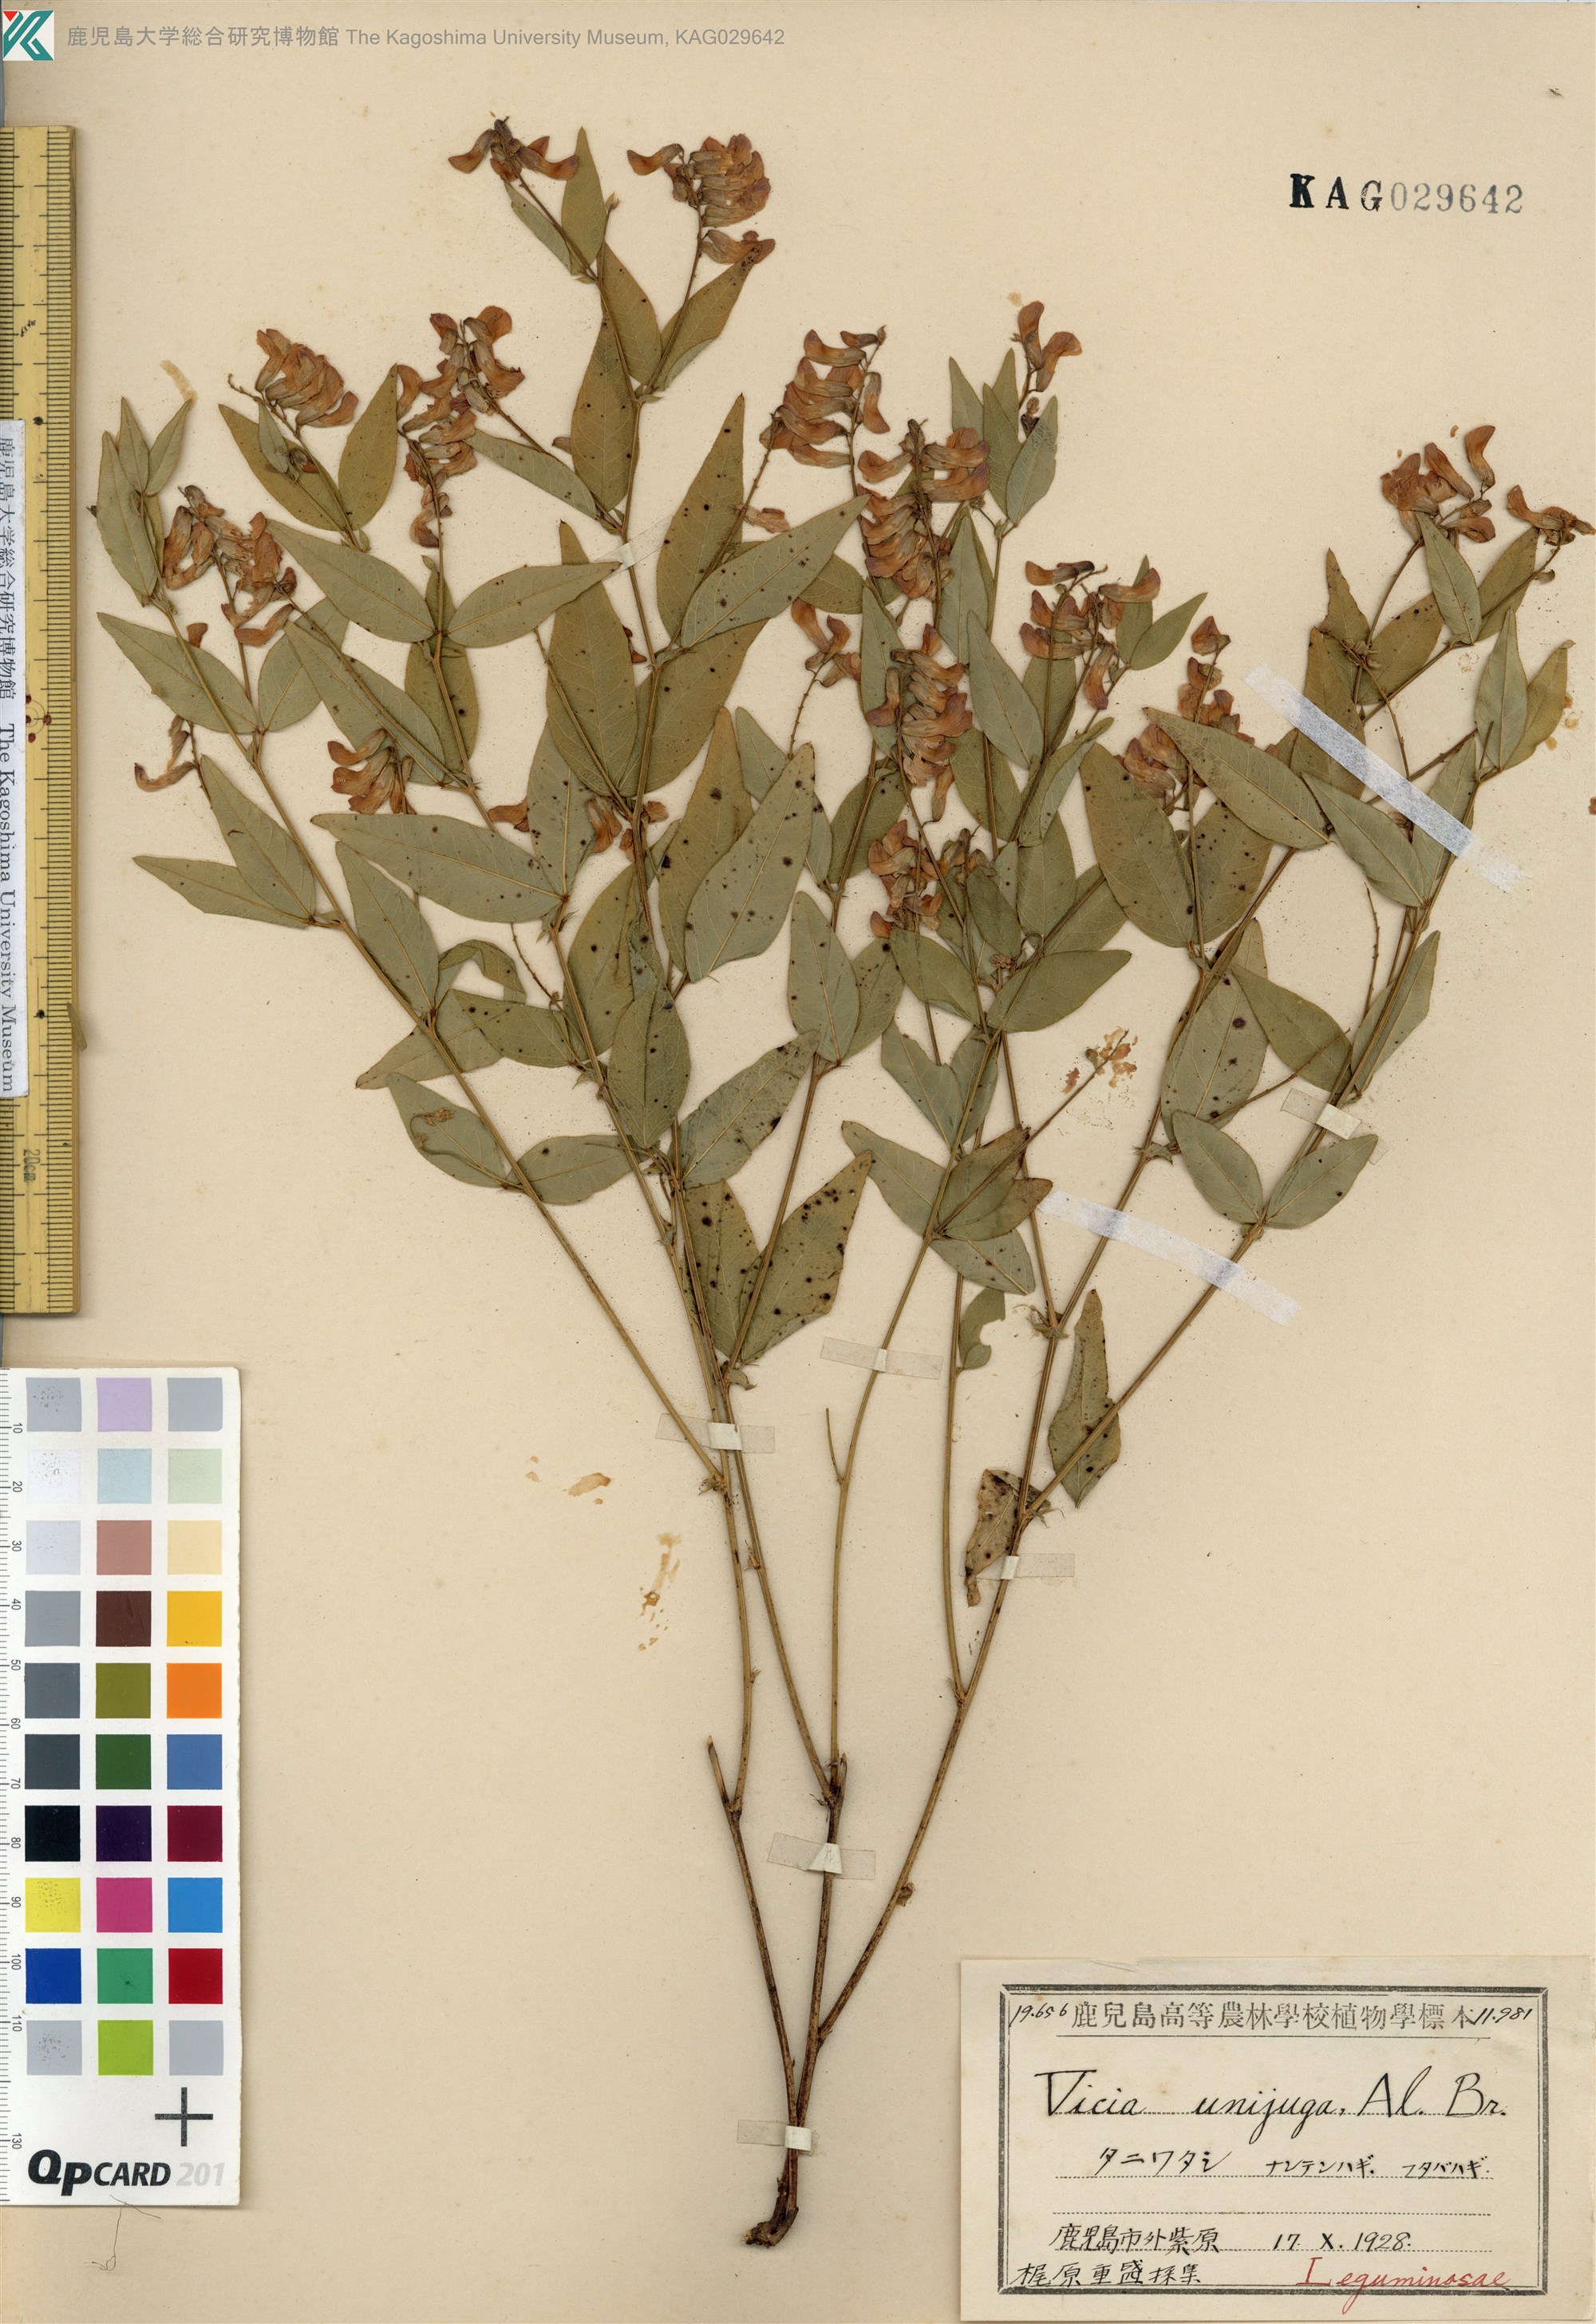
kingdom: Plantae
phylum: Tracheophyta
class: Magnoliopsida
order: Fabales
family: Fabaceae
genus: Vicia
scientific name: Vicia unijuga
